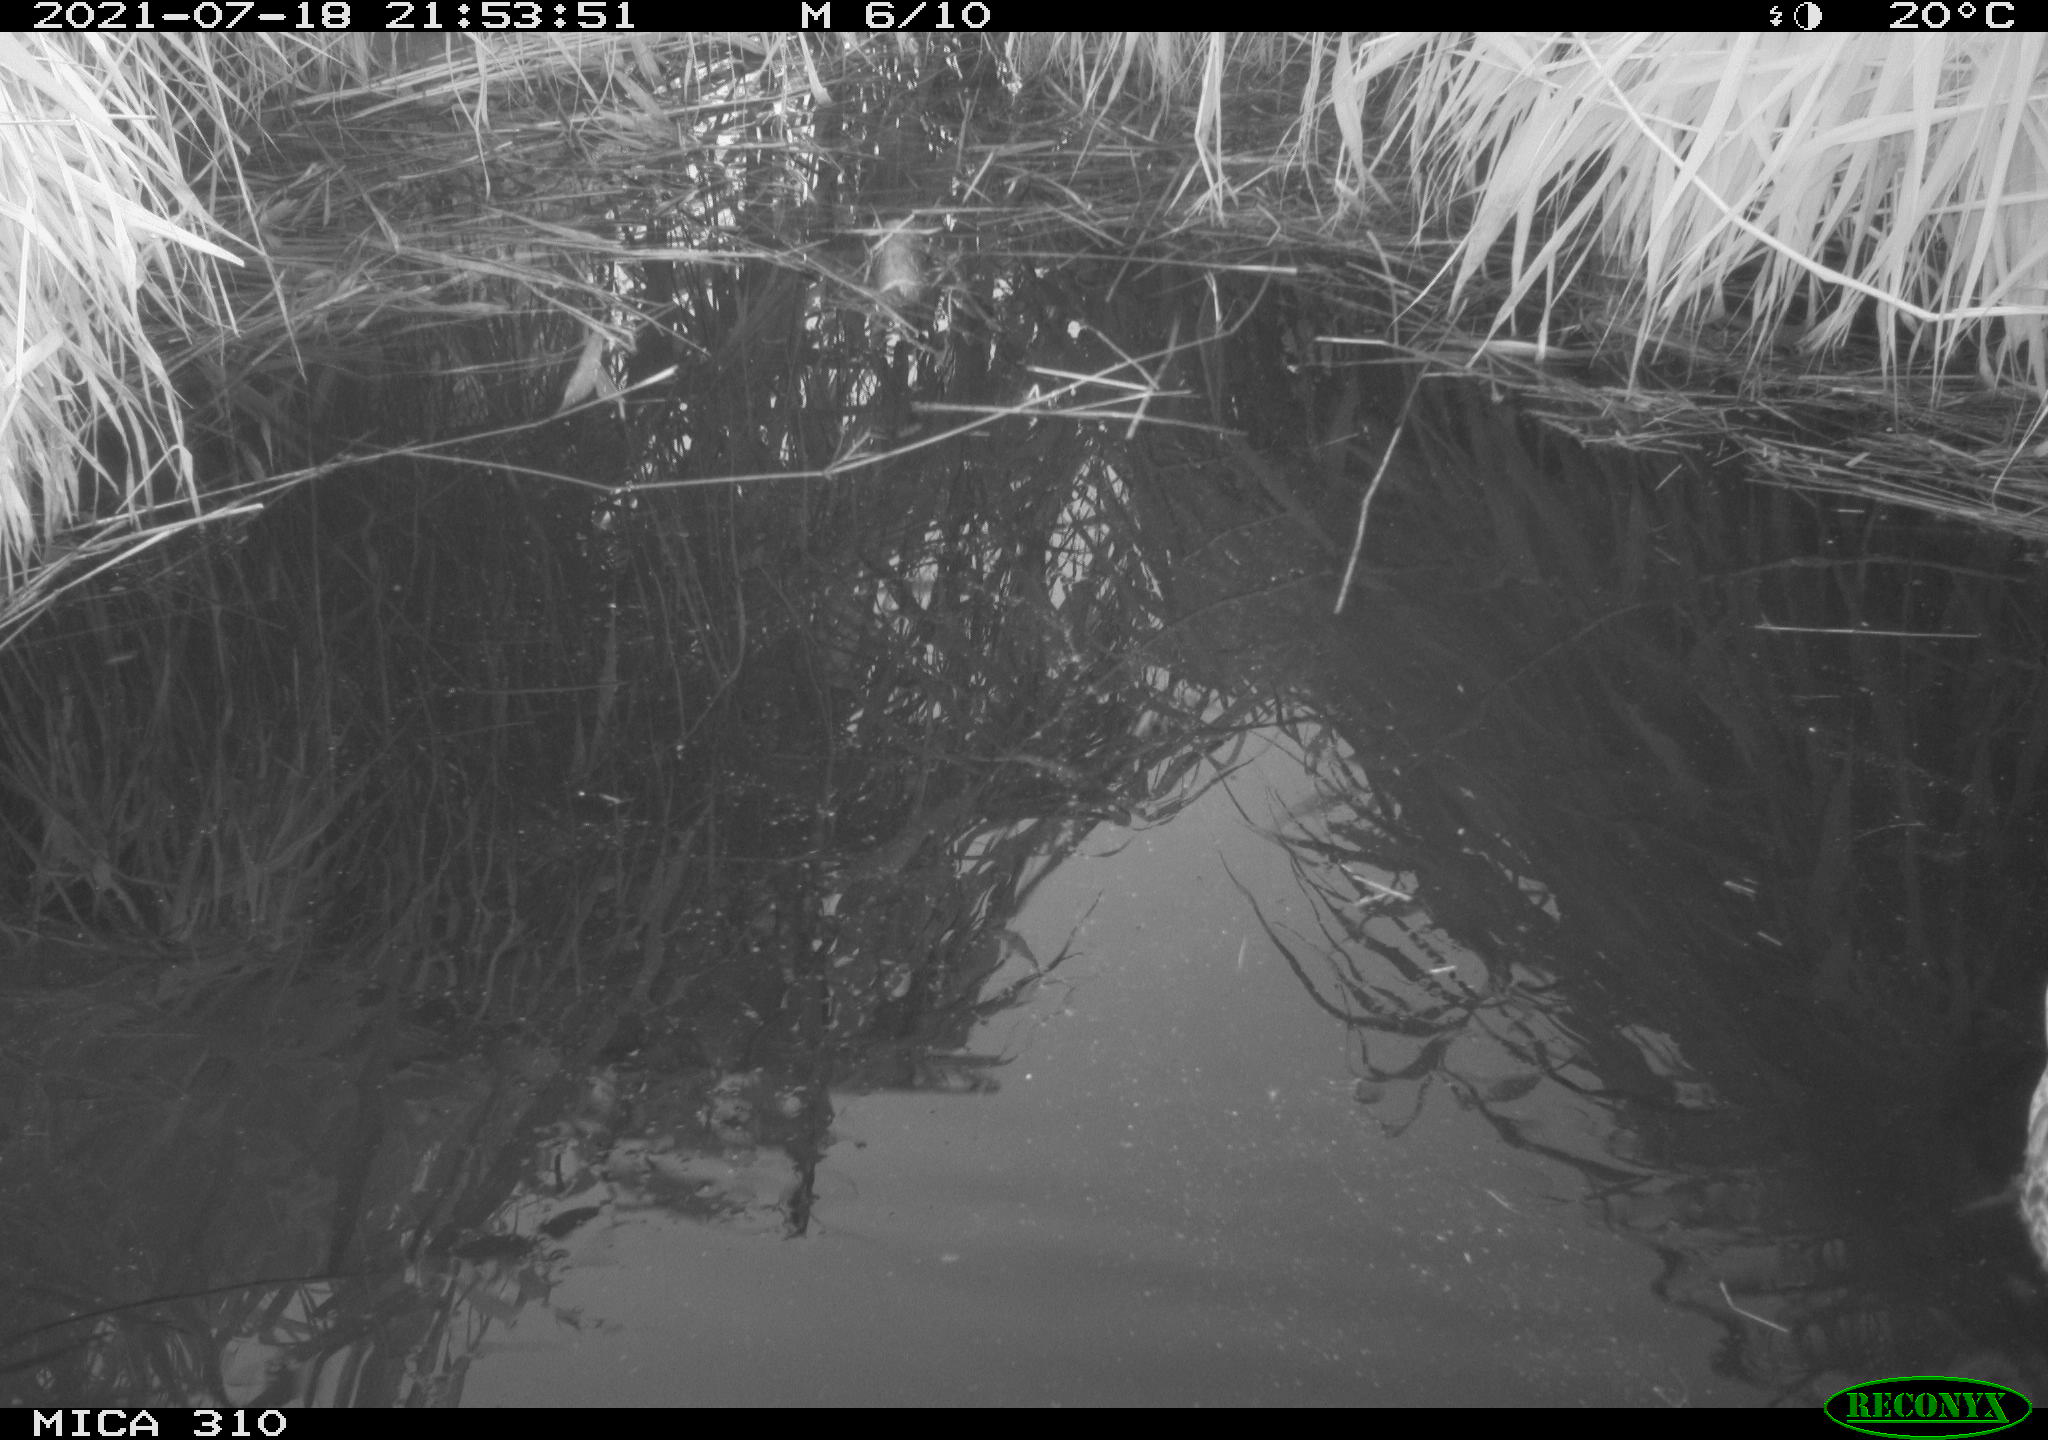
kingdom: Animalia
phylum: Chordata
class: Aves
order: Anseriformes
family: Anatidae
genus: Anas
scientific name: Anas platyrhynchos
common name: Mallard
